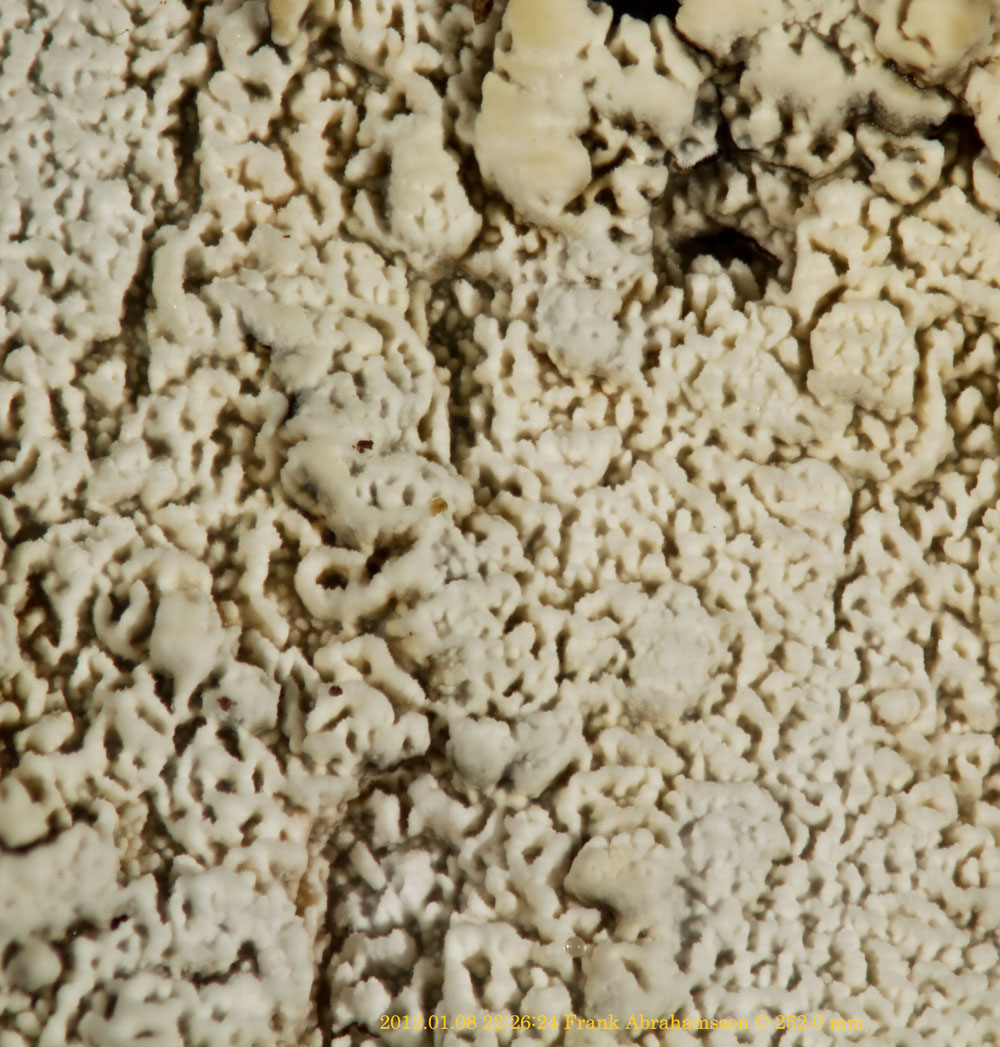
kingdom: Fungi
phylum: Basidiomycota
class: Agaricomycetes
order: Hymenochaetales
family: Schizoporaceae
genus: Schizopora
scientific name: Schizopora paradoxa
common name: hvid tandsvamp
